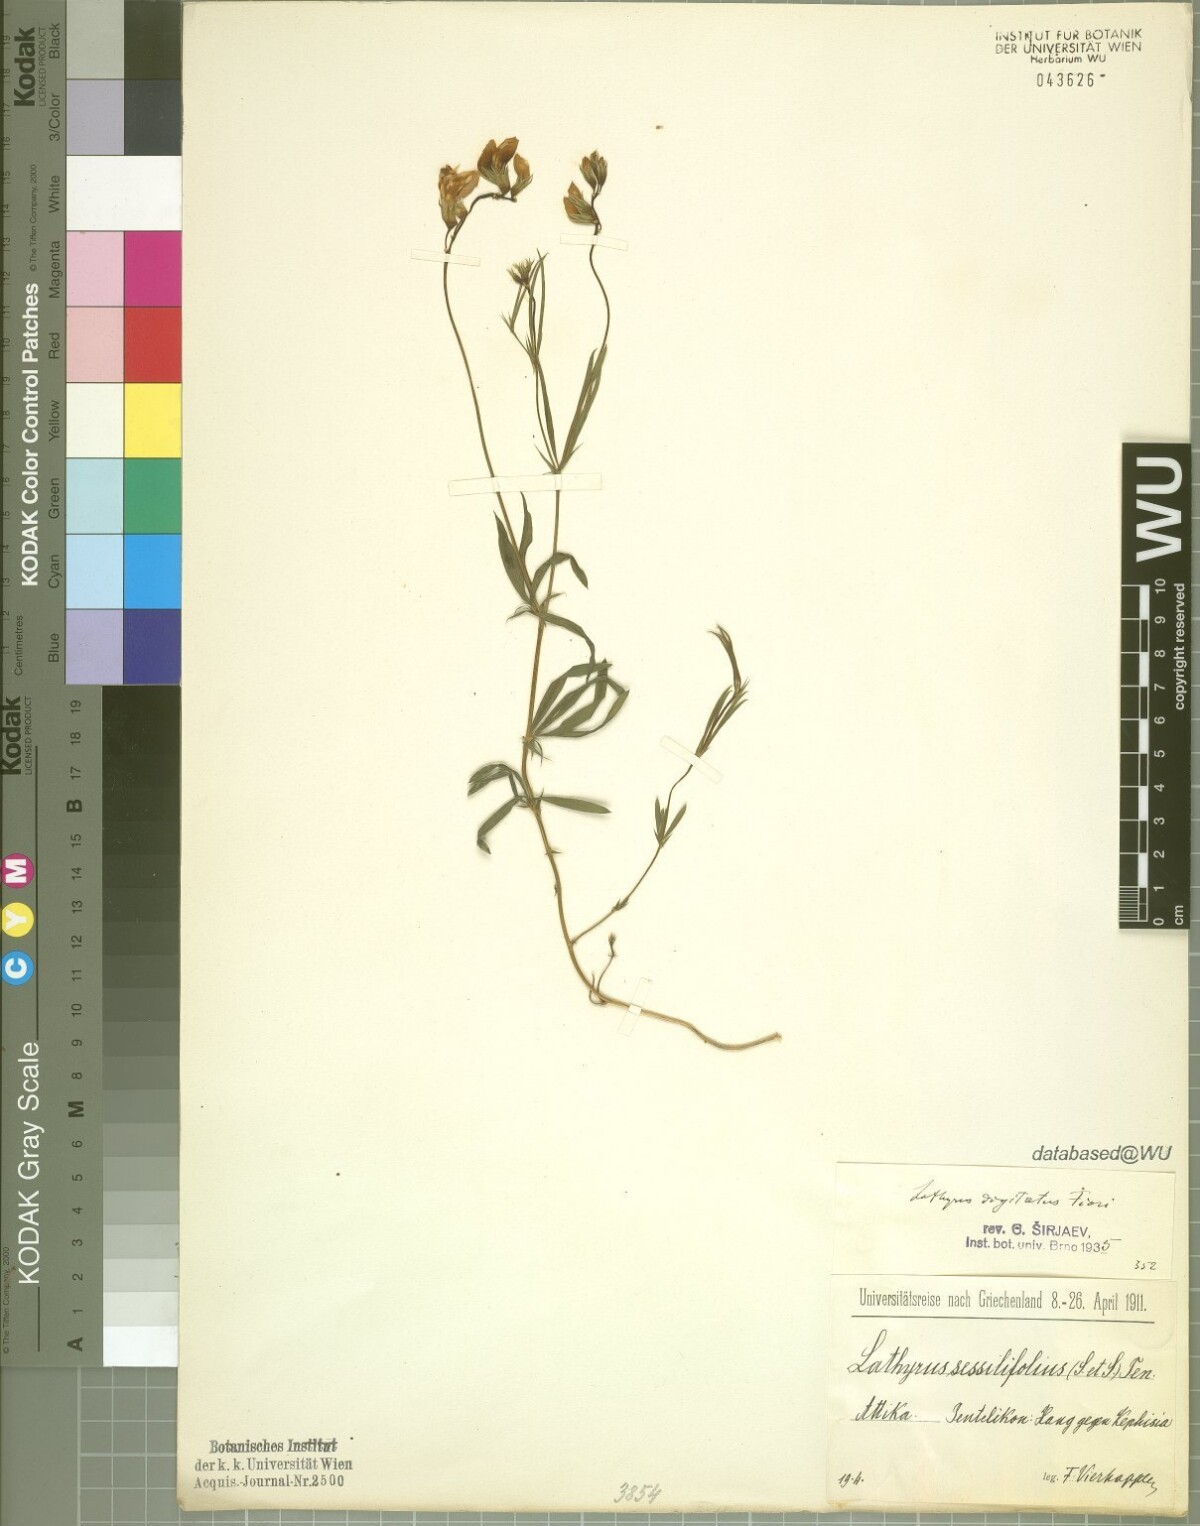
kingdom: Plantae
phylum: Tracheophyta
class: Magnoliopsida
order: Fabales
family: Fabaceae
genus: Lathyrus
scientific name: Lathyrus digitatus
